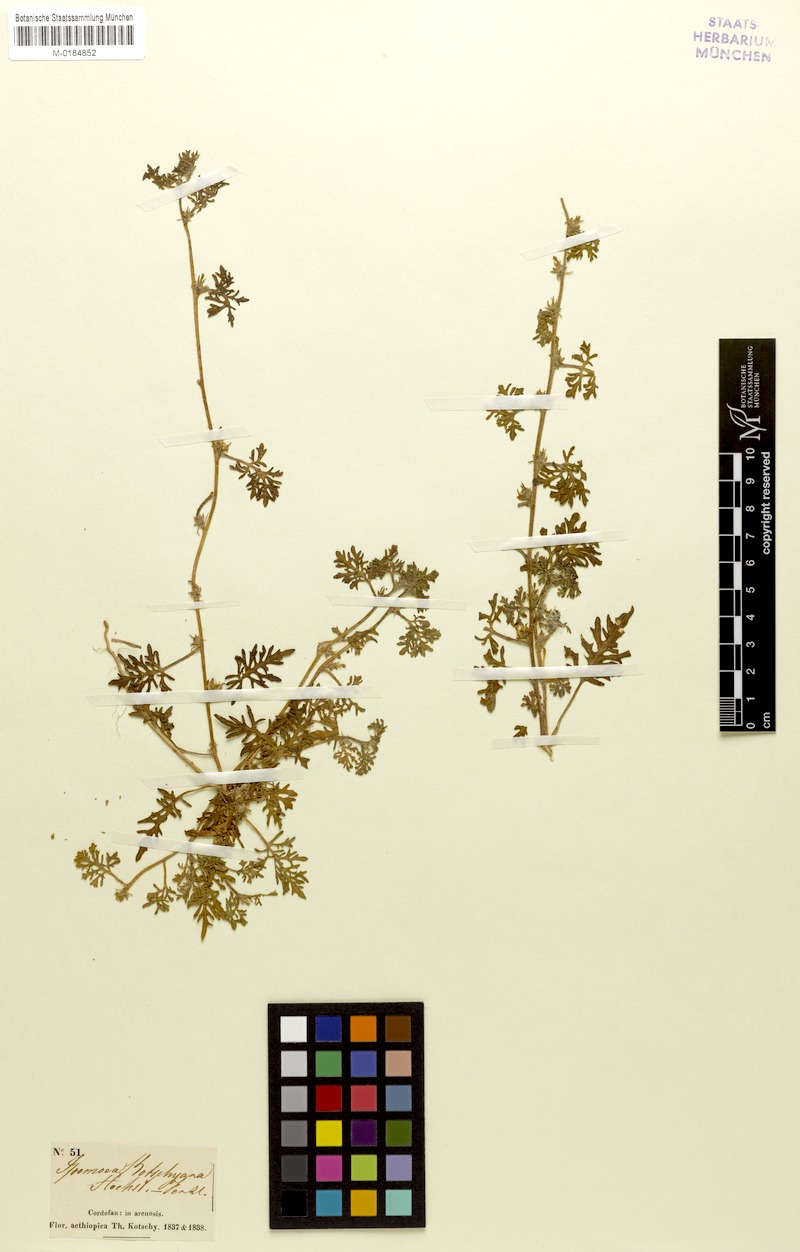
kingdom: Plantae
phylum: Tracheophyta
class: Magnoliopsida
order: Solanales
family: Convolvulaceae
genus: Ipomoea
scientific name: Ipomoea kotschyana
